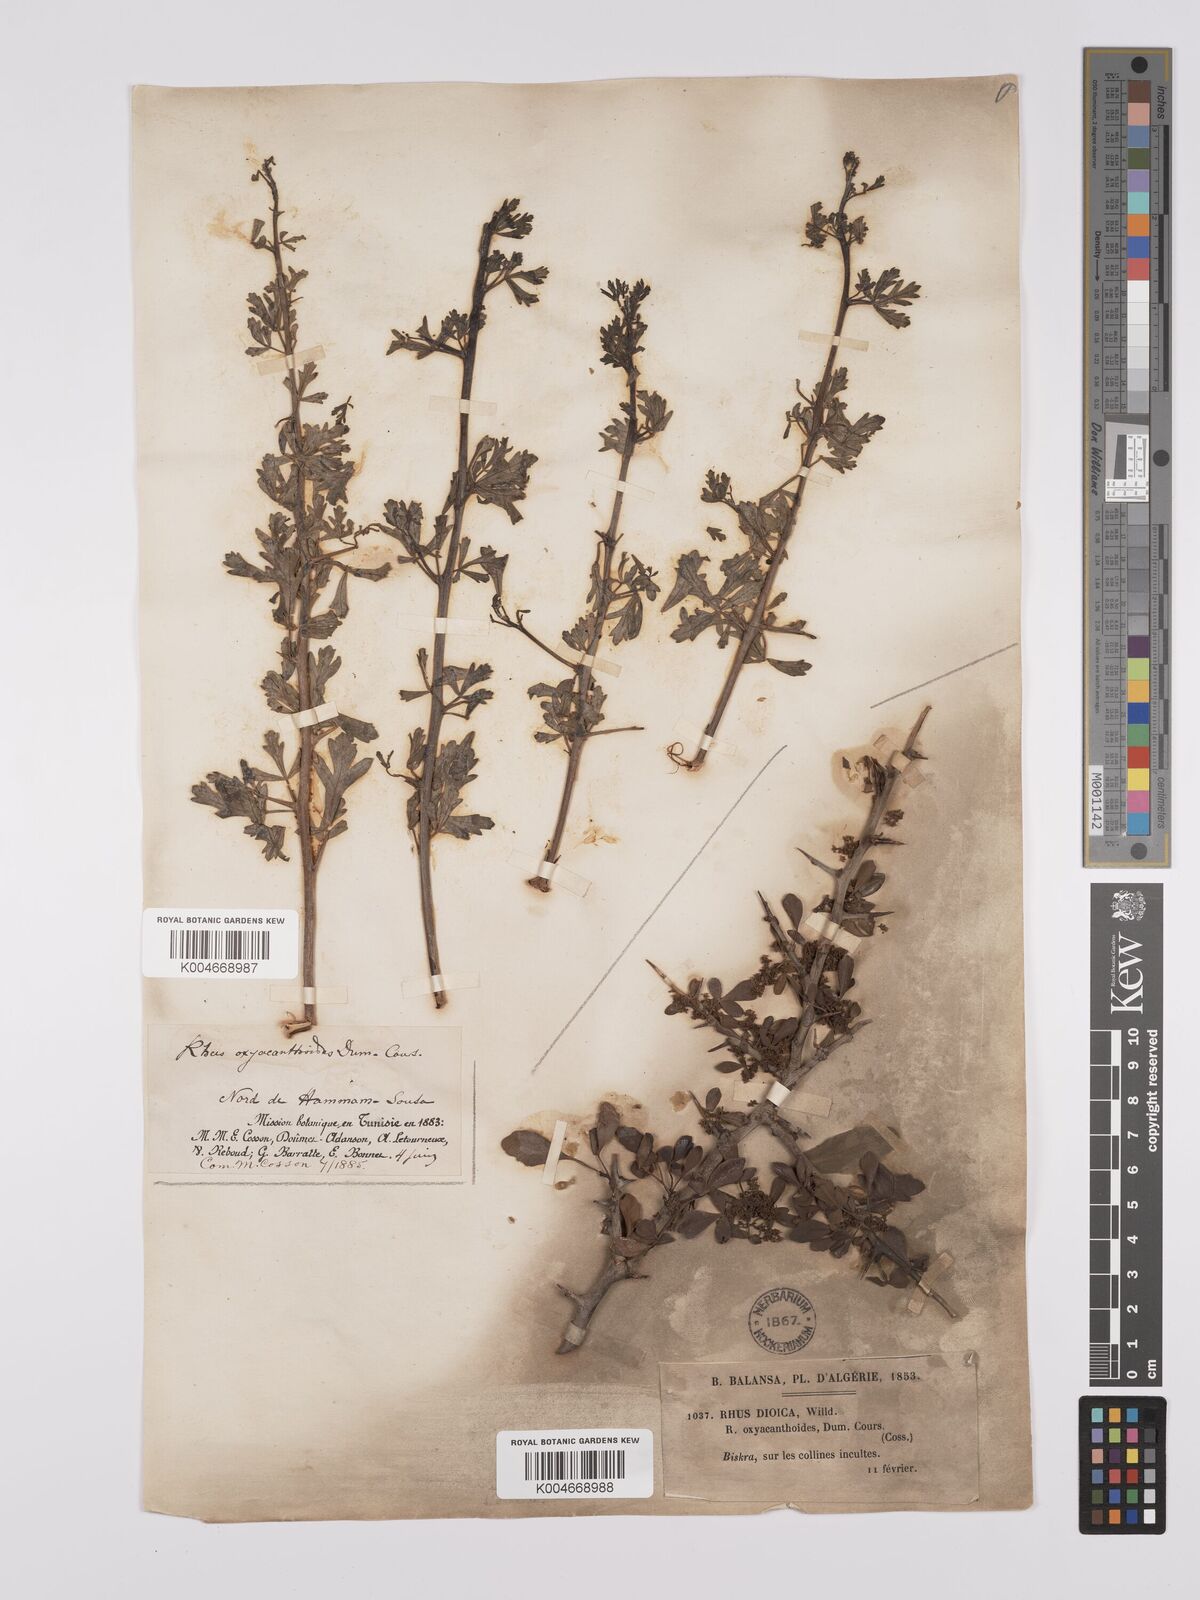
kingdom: Plantae
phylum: Tracheophyta
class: Magnoliopsida
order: Sapindales
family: Anacardiaceae
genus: Rhus
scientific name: Rhus
